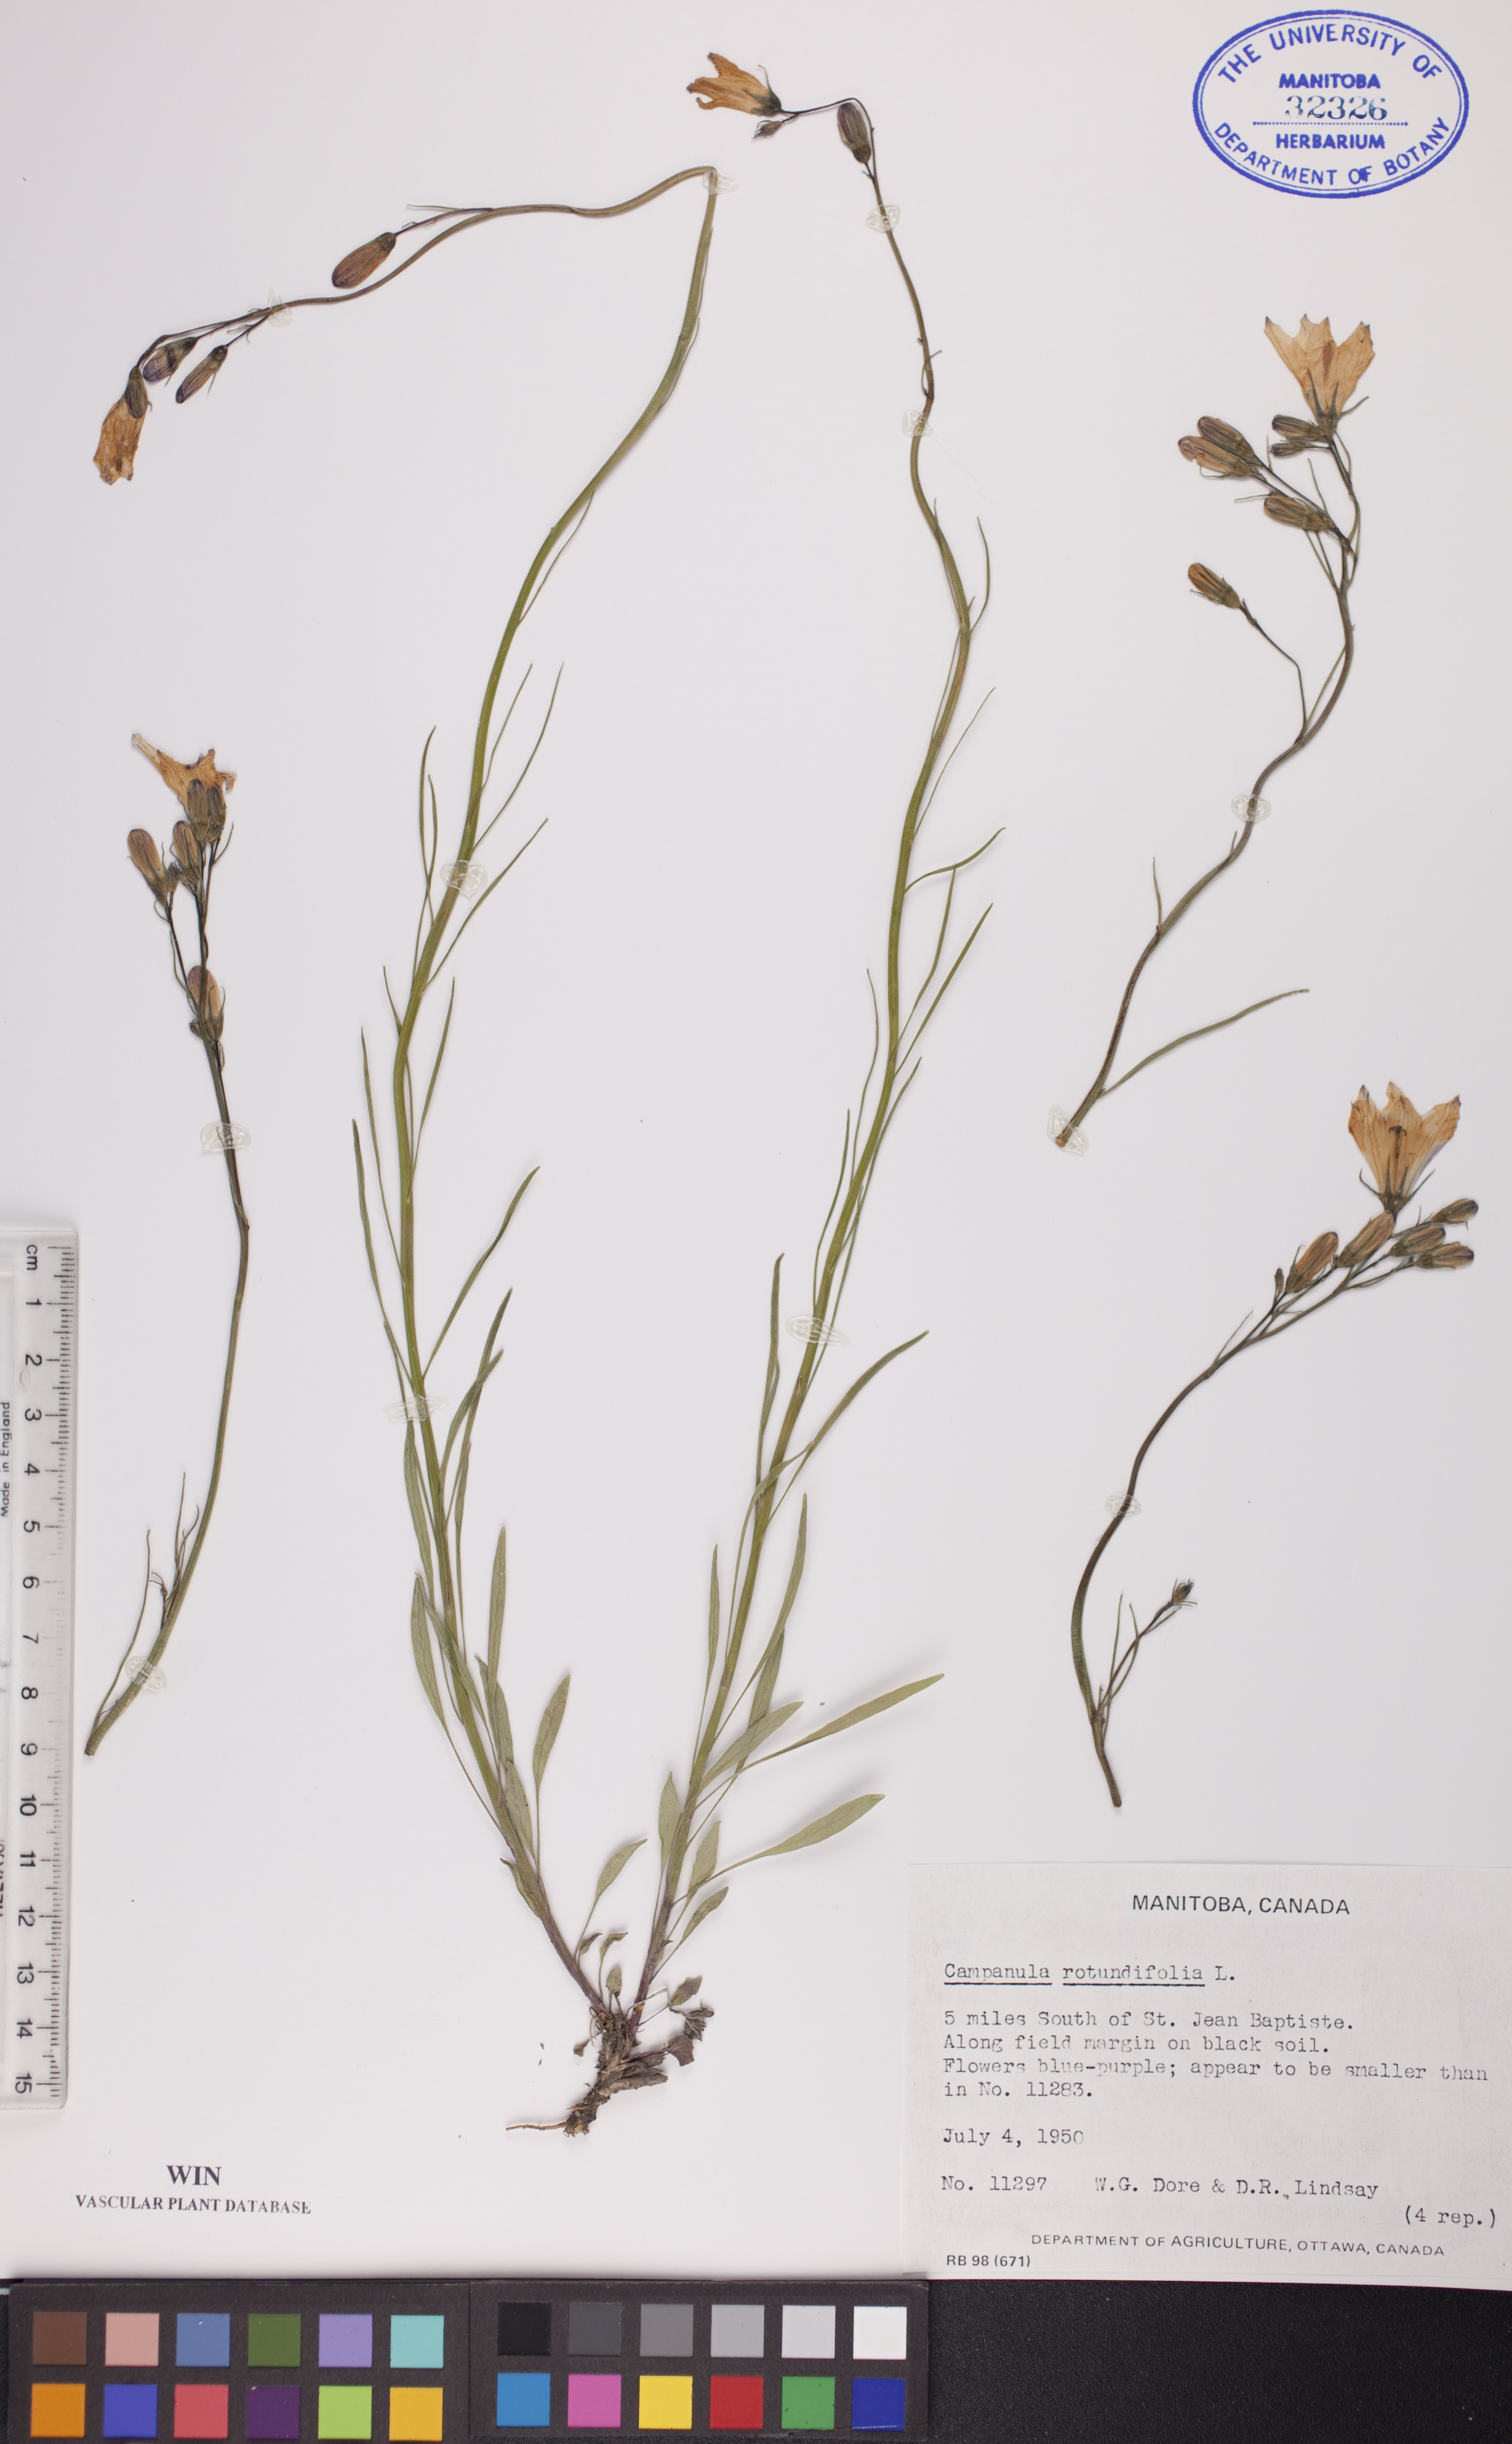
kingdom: Plantae
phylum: Tracheophyta
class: Magnoliopsida
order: Asterales
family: Campanulaceae
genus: Campanula
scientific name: Campanula rotundifolia
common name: Harebell
